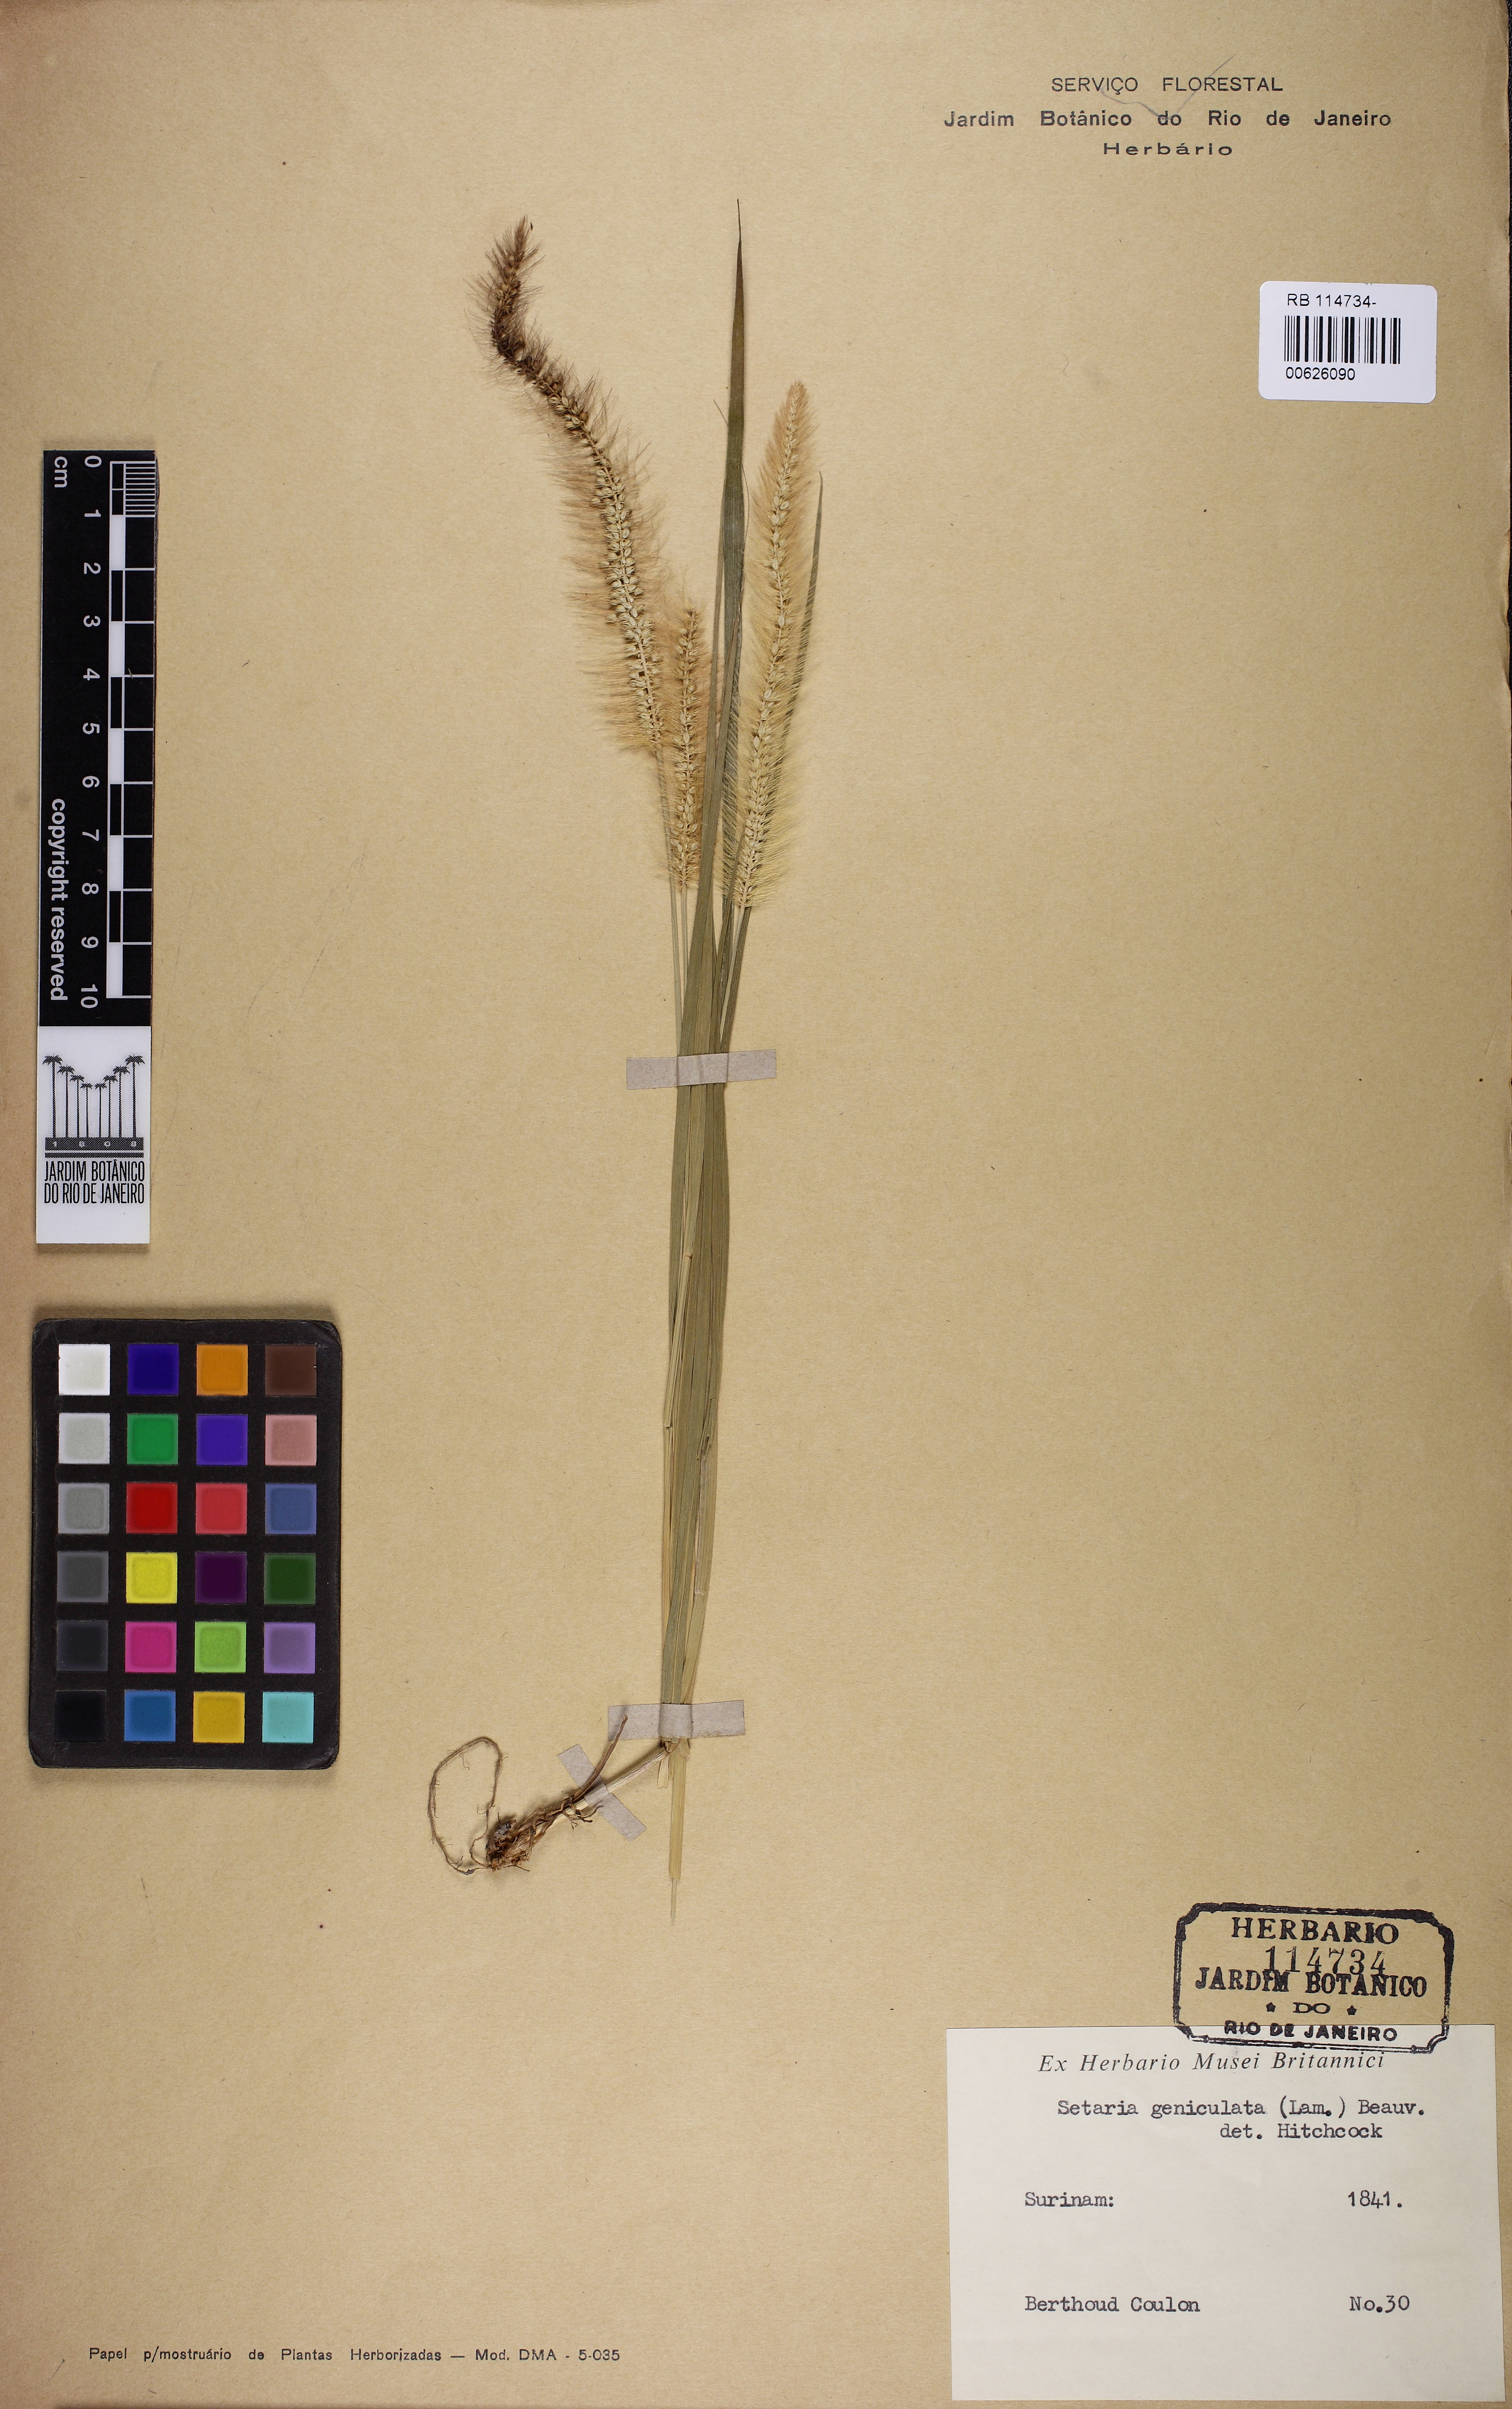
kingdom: Plantae
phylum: Tracheophyta
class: Liliopsida
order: Poales
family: Poaceae
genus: Setaria
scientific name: Setaria parviflora
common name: Knotroot bristle-grass
